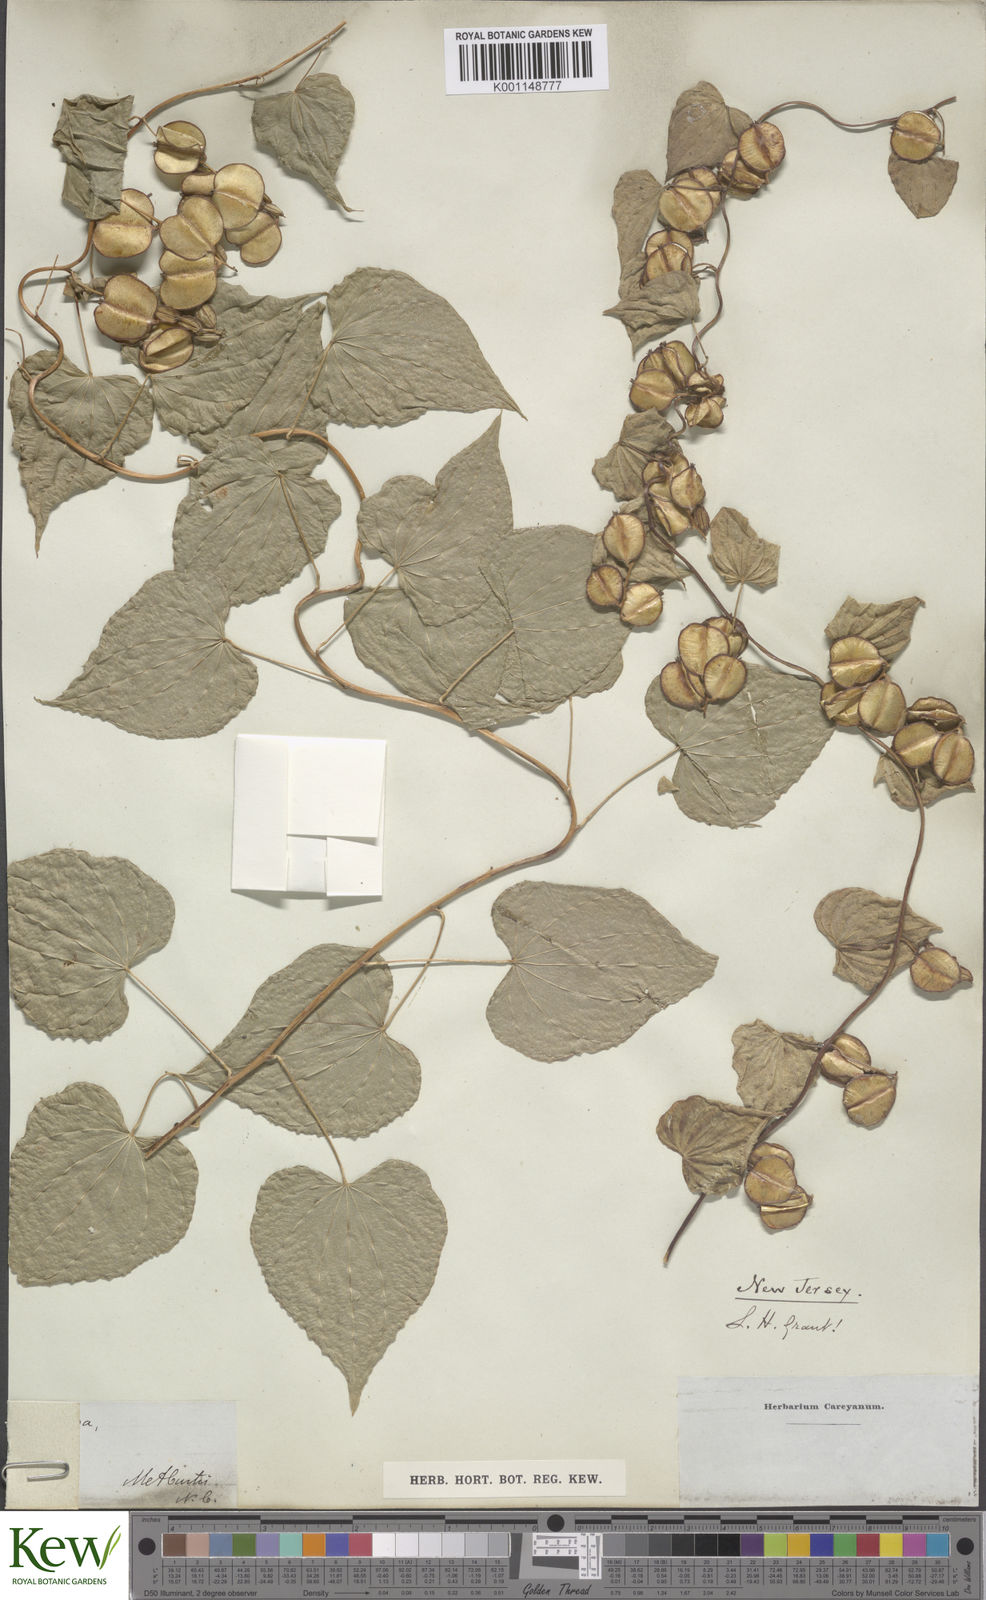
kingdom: Plantae
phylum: Tracheophyta
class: Liliopsida
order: Dioscoreales
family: Dioscoreaceae
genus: Dioscorea
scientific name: Dioscorea villosa
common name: Wild yam
